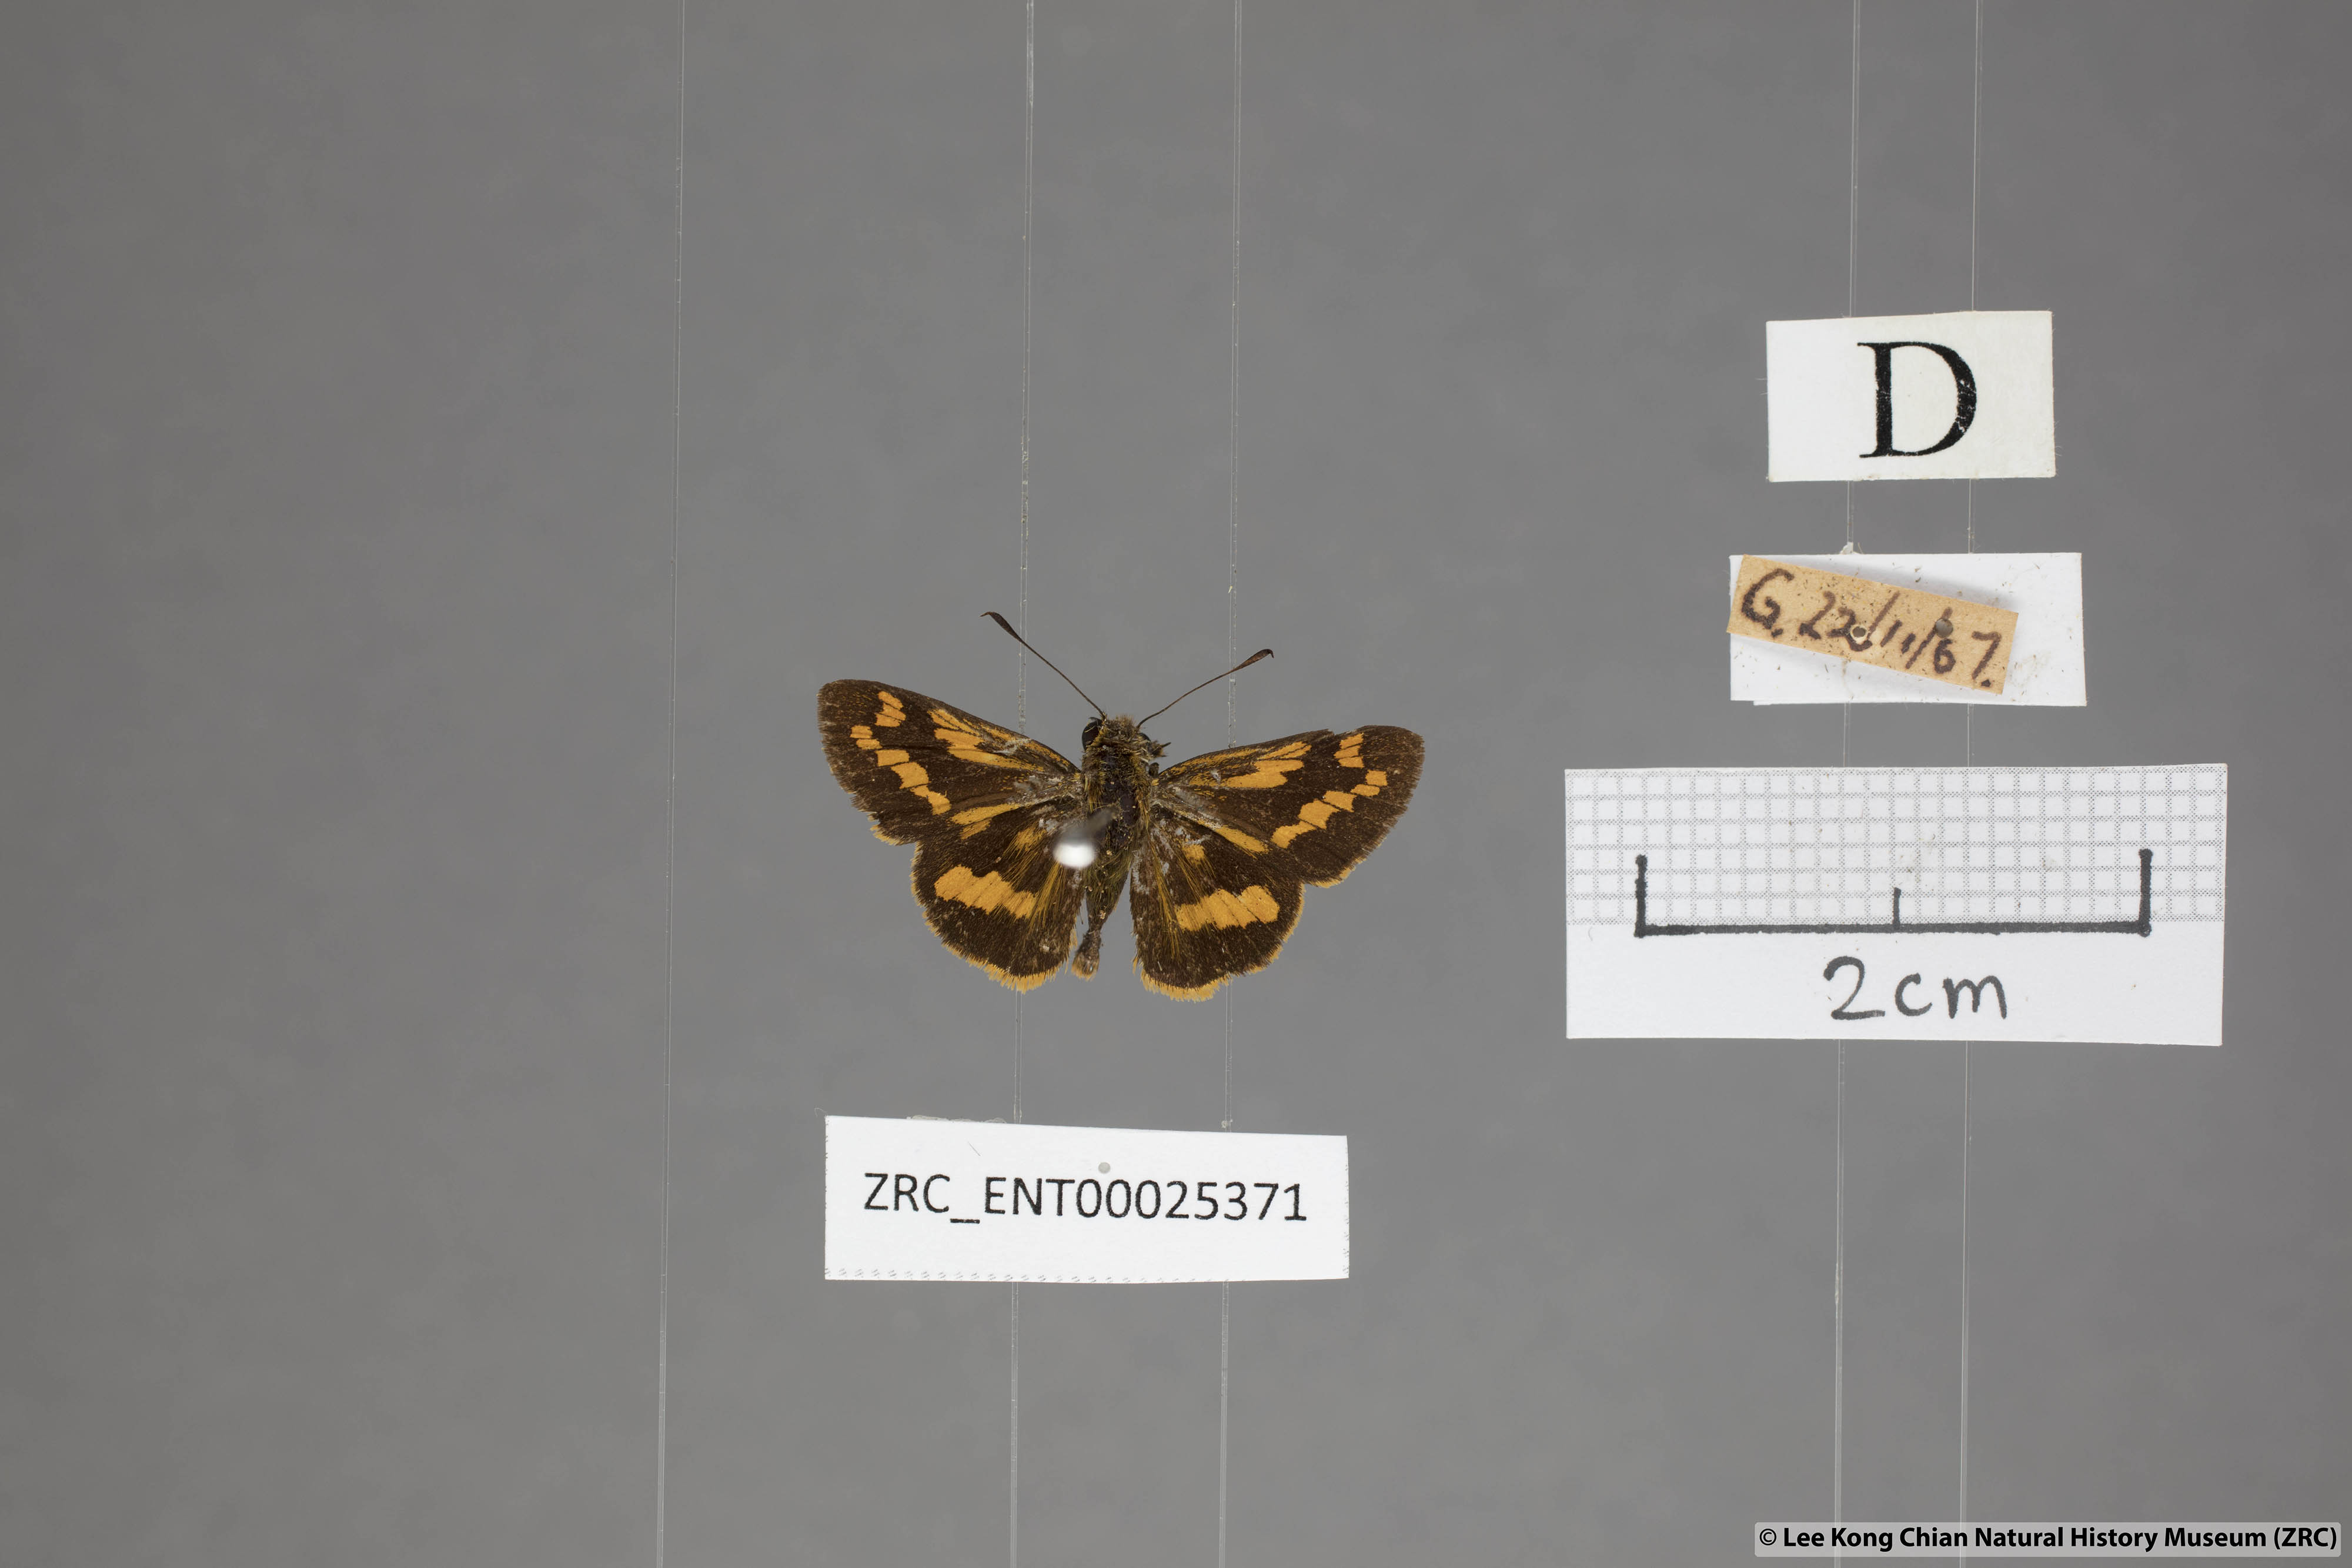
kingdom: Animalia
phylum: Arthropoda
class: Insecta
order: Lepidoptera
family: Hesperiidae
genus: Potanthus
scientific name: Potanthus ganda
